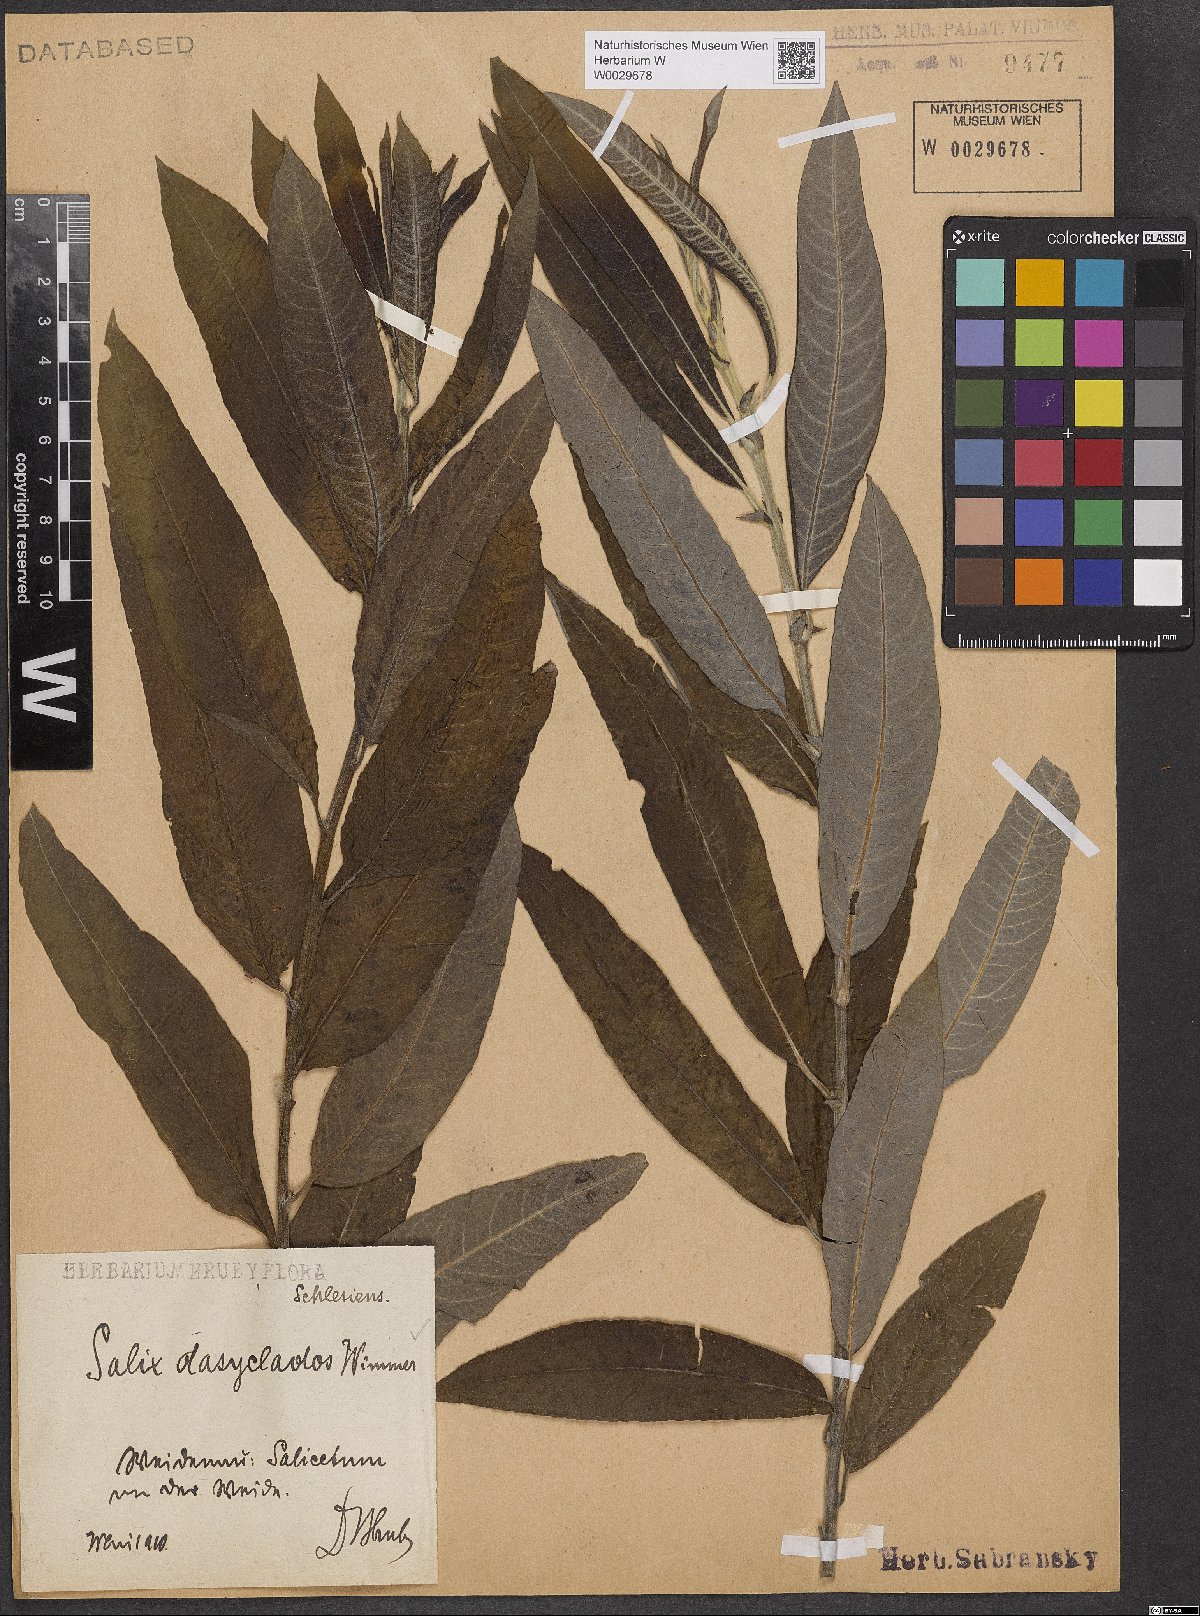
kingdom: Plantae
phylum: Tracheophyta
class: Magnoliopsida
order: Malpighiales
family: Salicaceae
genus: Salix
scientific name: Salix gmelinii
